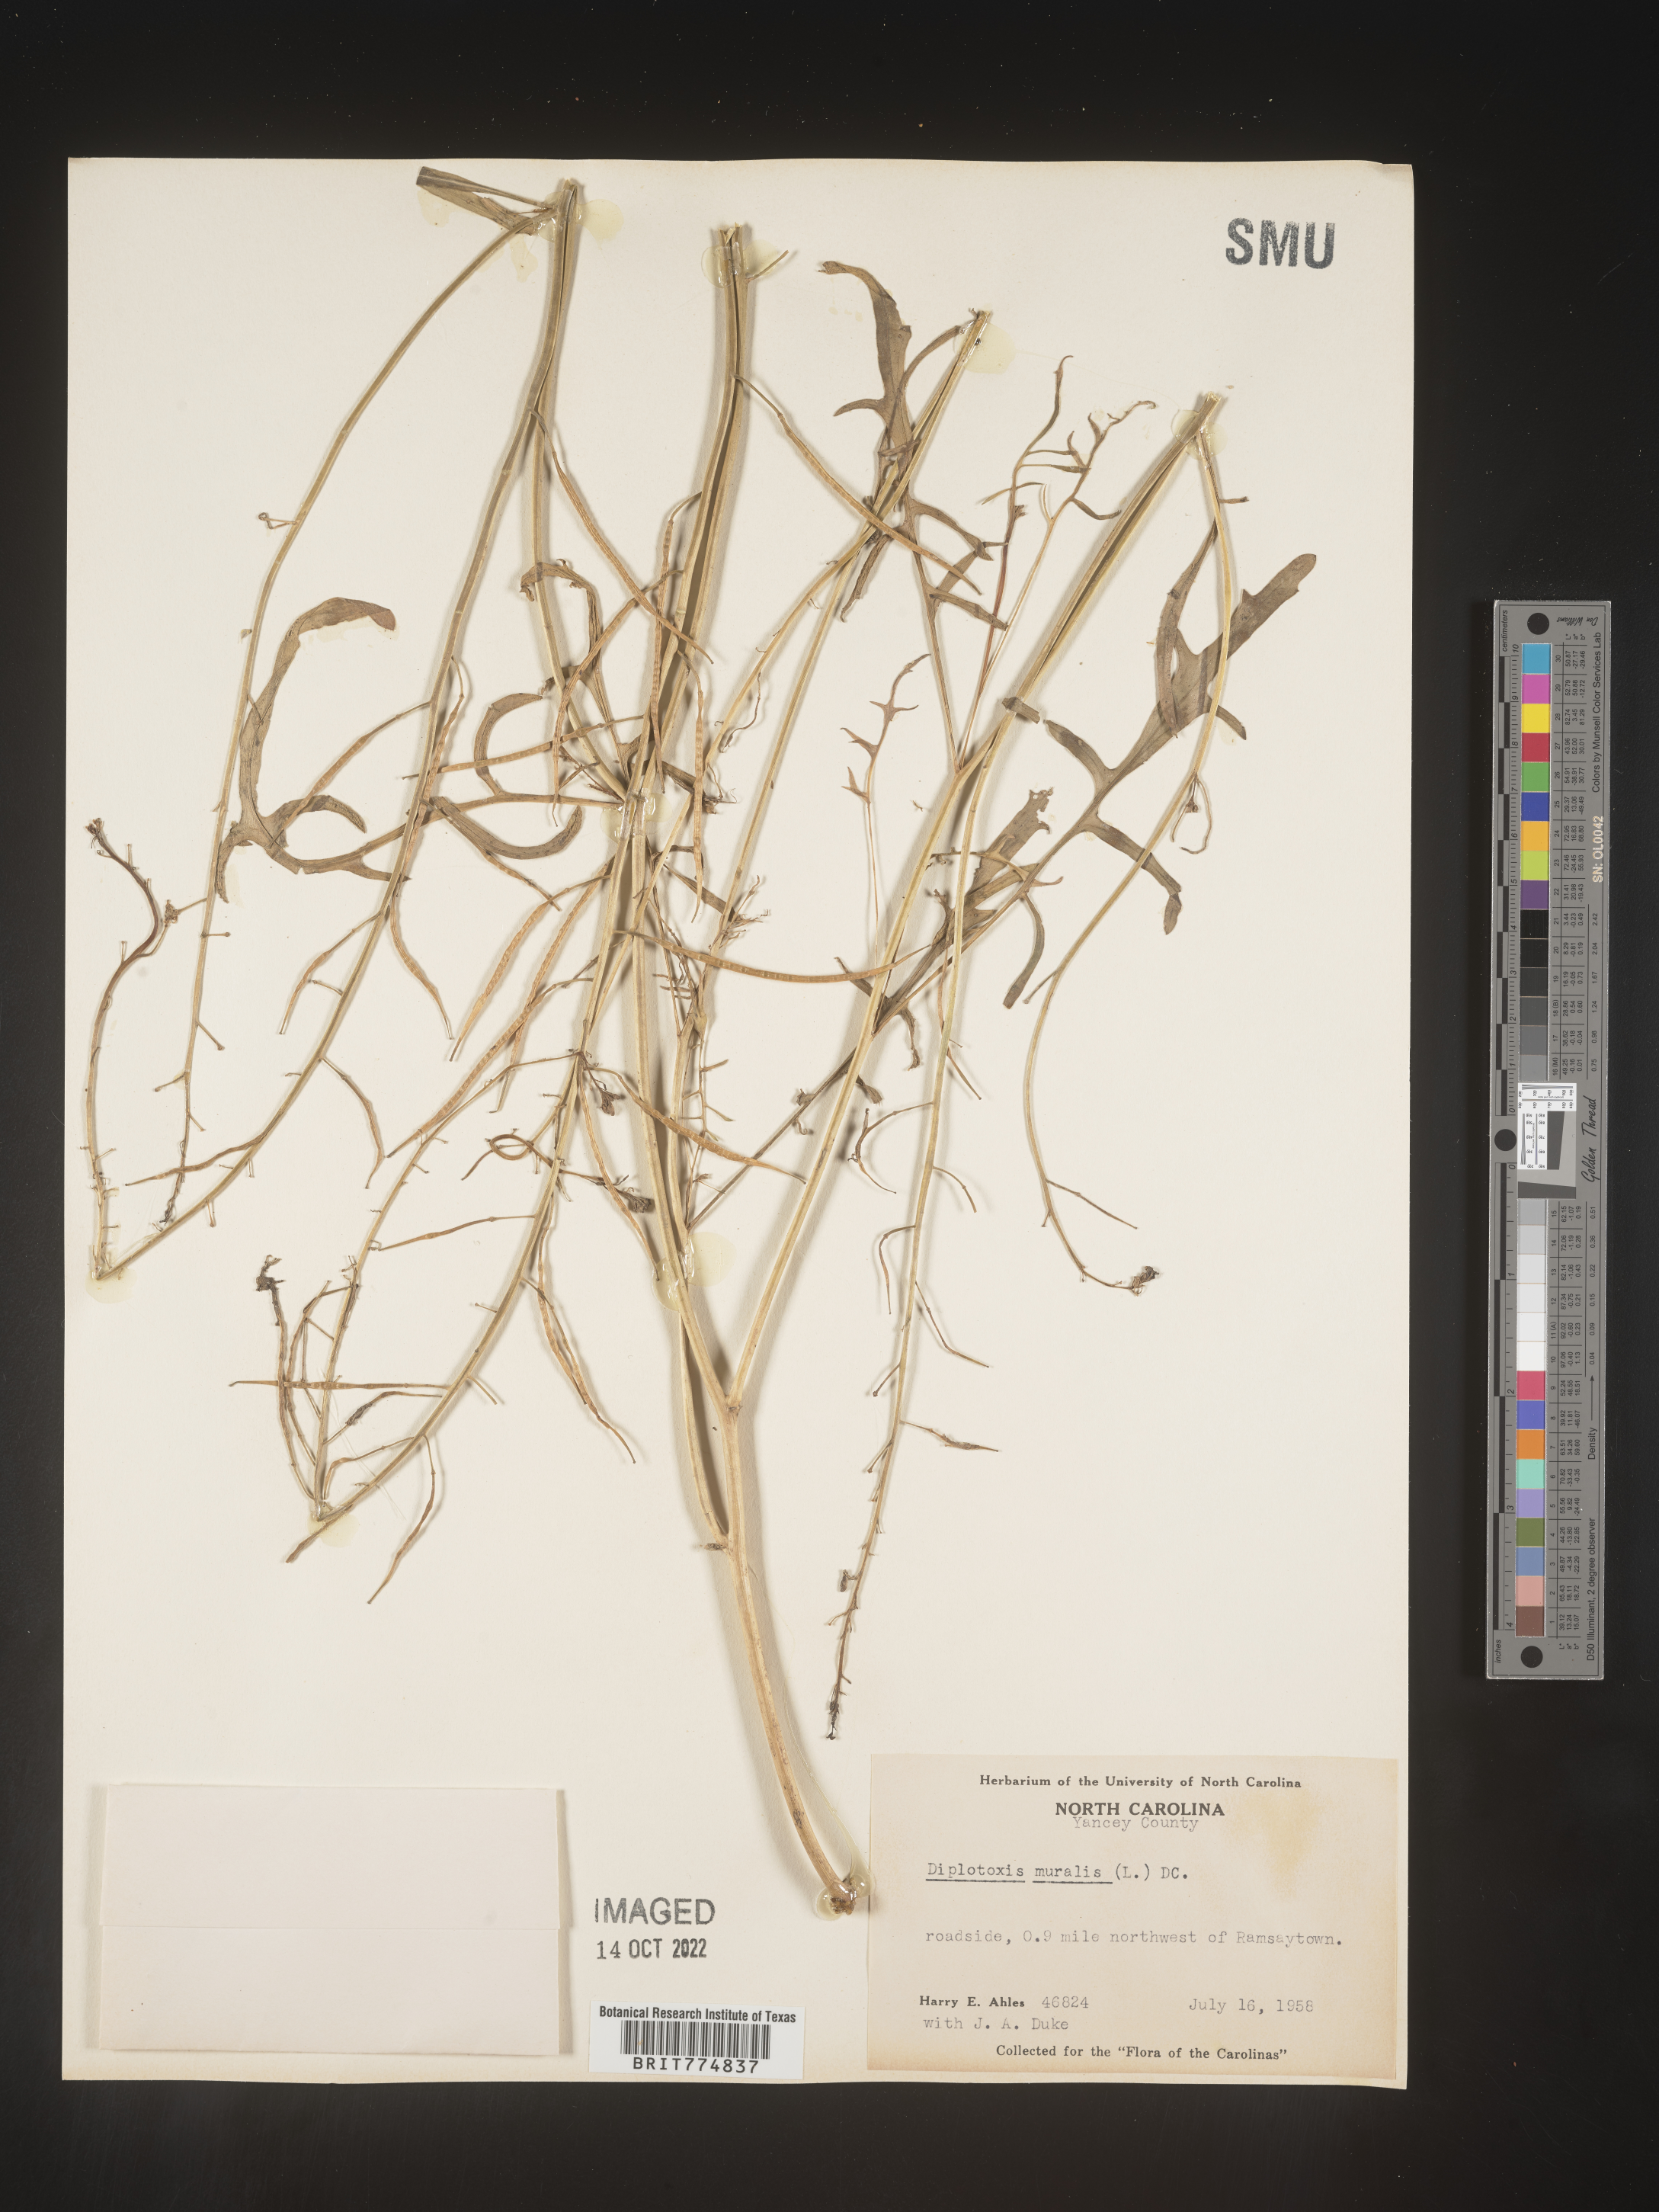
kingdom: Plantae
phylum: Tracheophyta
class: Magnoliopsida
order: Brassicales
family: Brassicaceae
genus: Diplotaxis
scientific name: Diplotaxis
